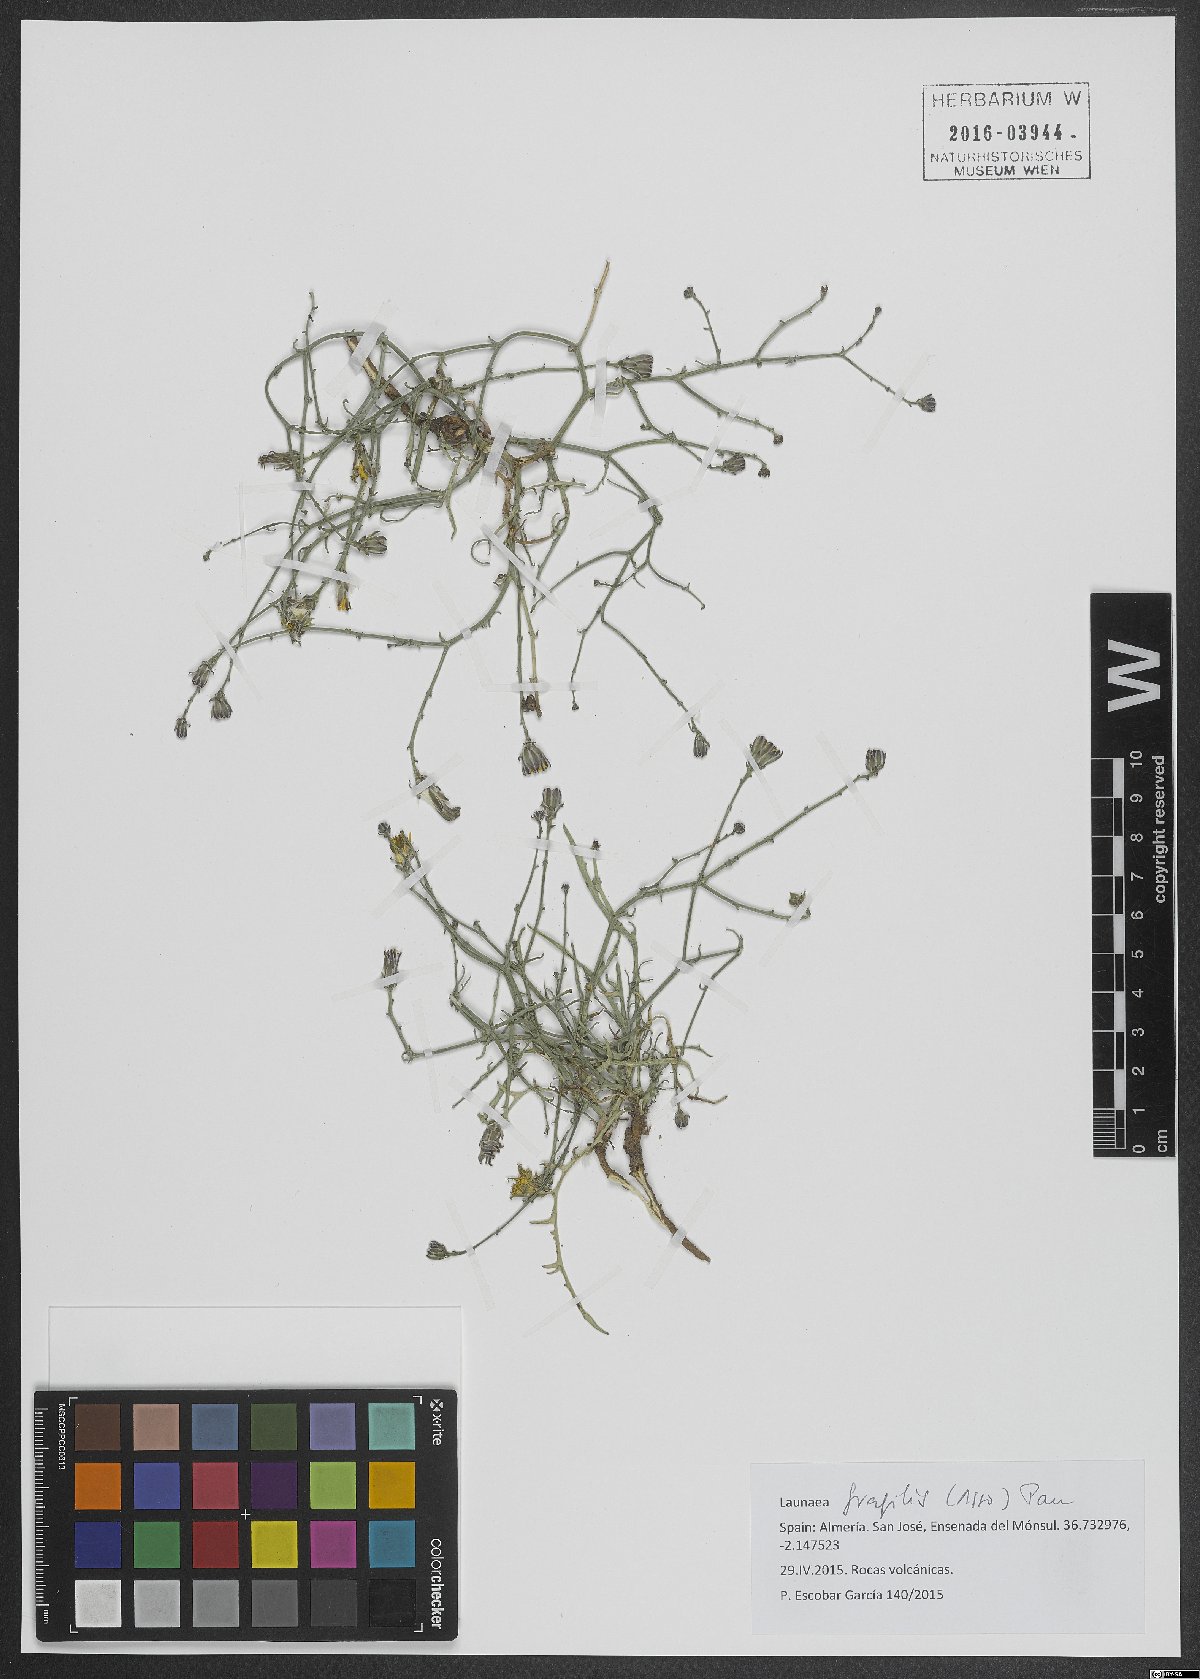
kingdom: Plantae
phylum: Tracheophyta
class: Magnoliopsida
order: Asterales
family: Asteraceae
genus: Launaea
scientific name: Launaea fragilis
